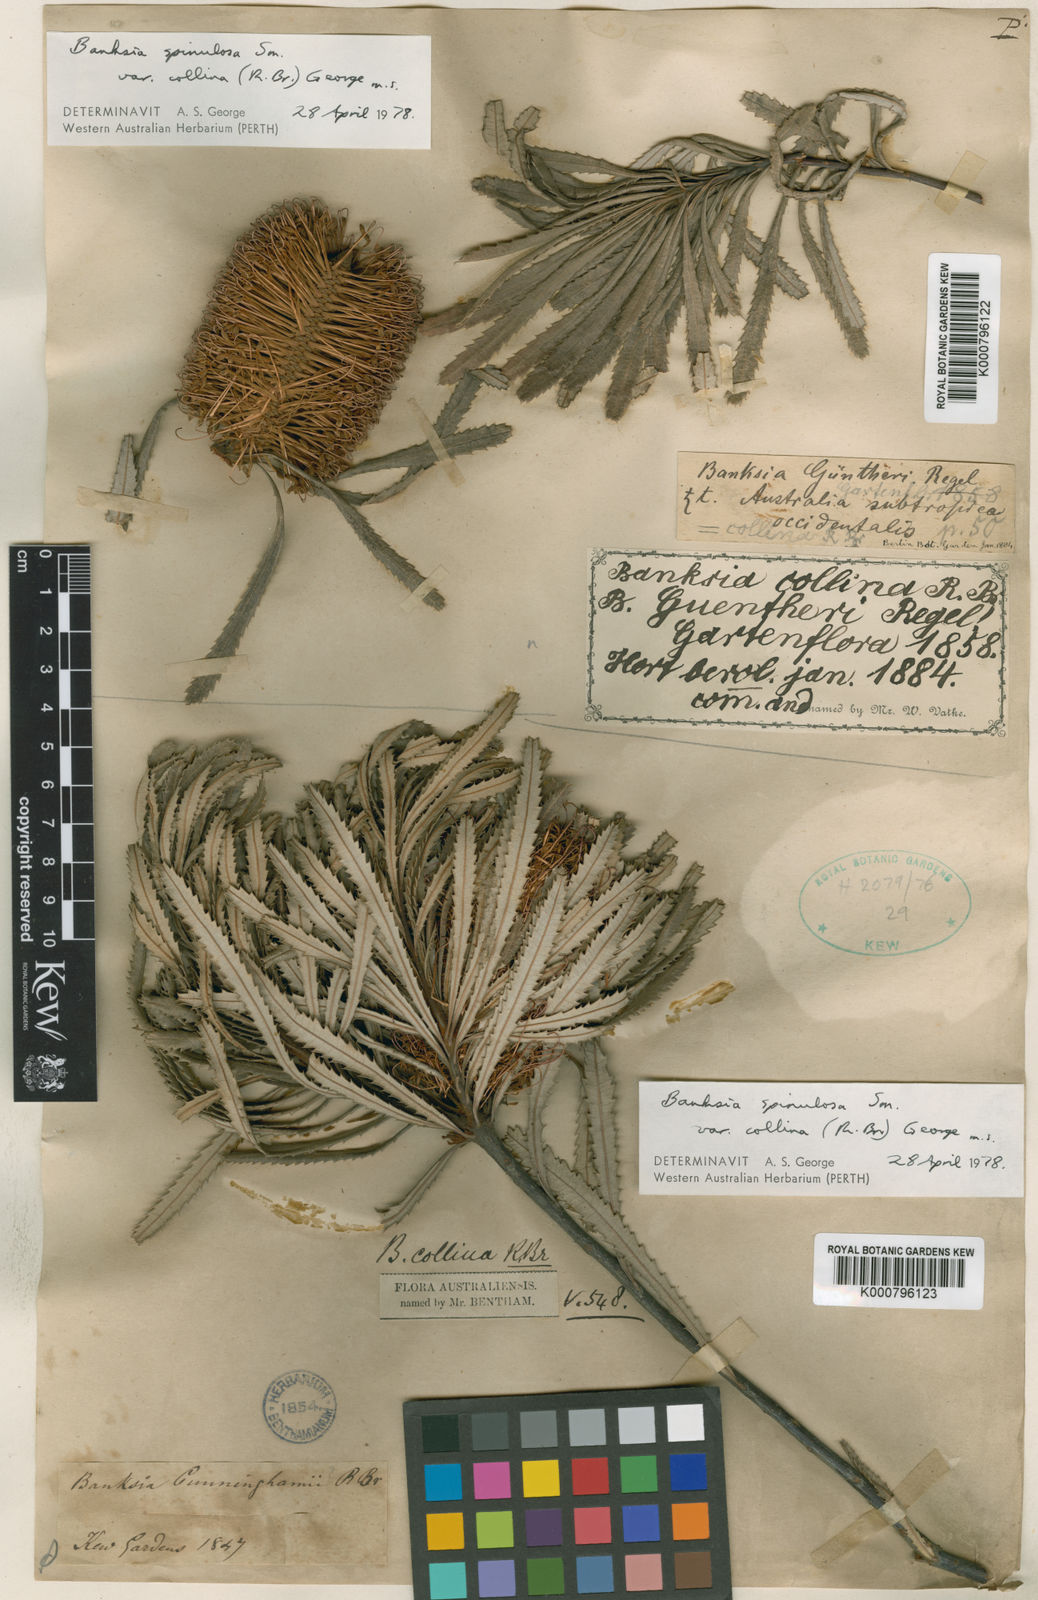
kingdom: Plantae
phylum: Tracheophyta
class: Magnoliopsida
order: Proteales
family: Proteaceae
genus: Banksia
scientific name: Banksia spinulosa
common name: Hairpin banksia
